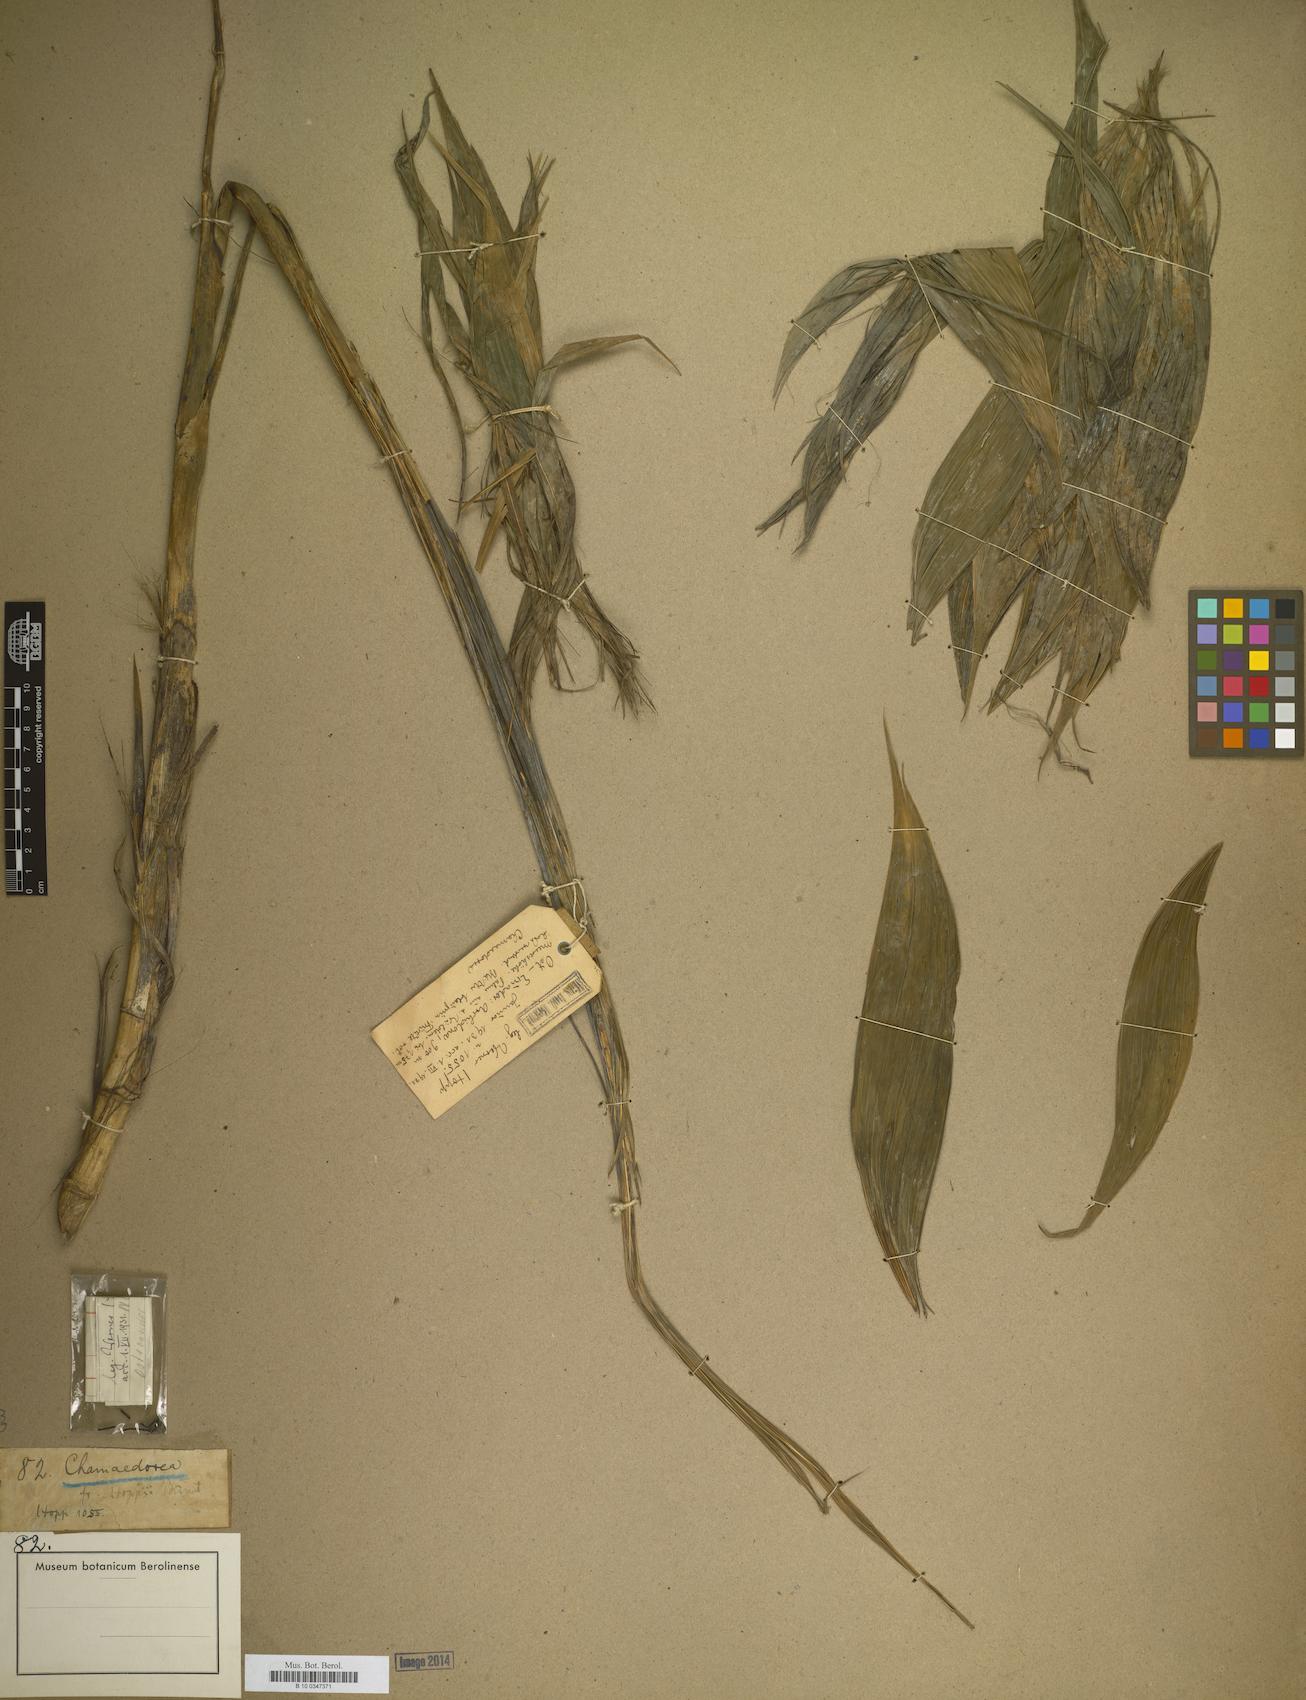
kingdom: Plantae
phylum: Tracheophyta
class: Liliopsida
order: Arecales
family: Arecaceae
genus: Chamaedorea
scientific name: Chamaedorea
